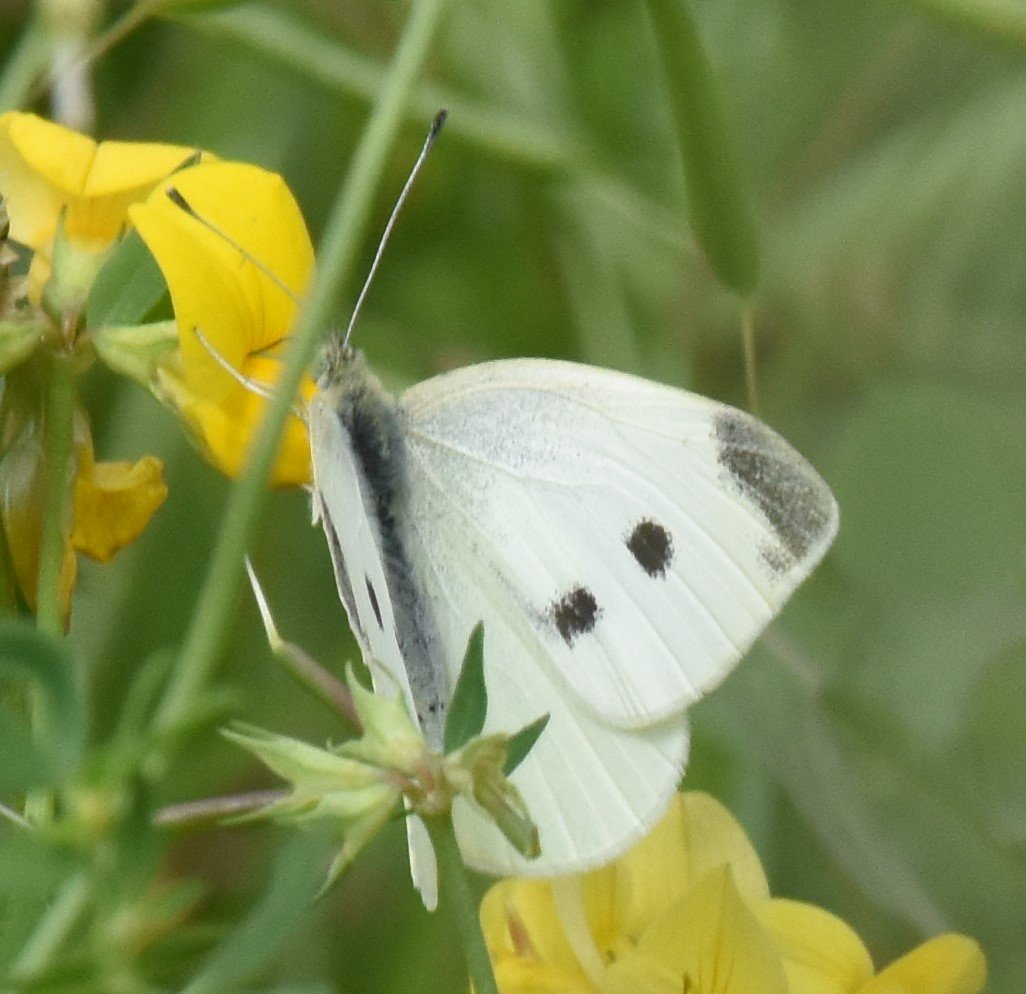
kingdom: Animalia
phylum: Arthropoda
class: Insecta
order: Lepidoptera
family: Pieridae
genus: Pieris
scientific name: Pieris rapae
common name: Cabbage White
